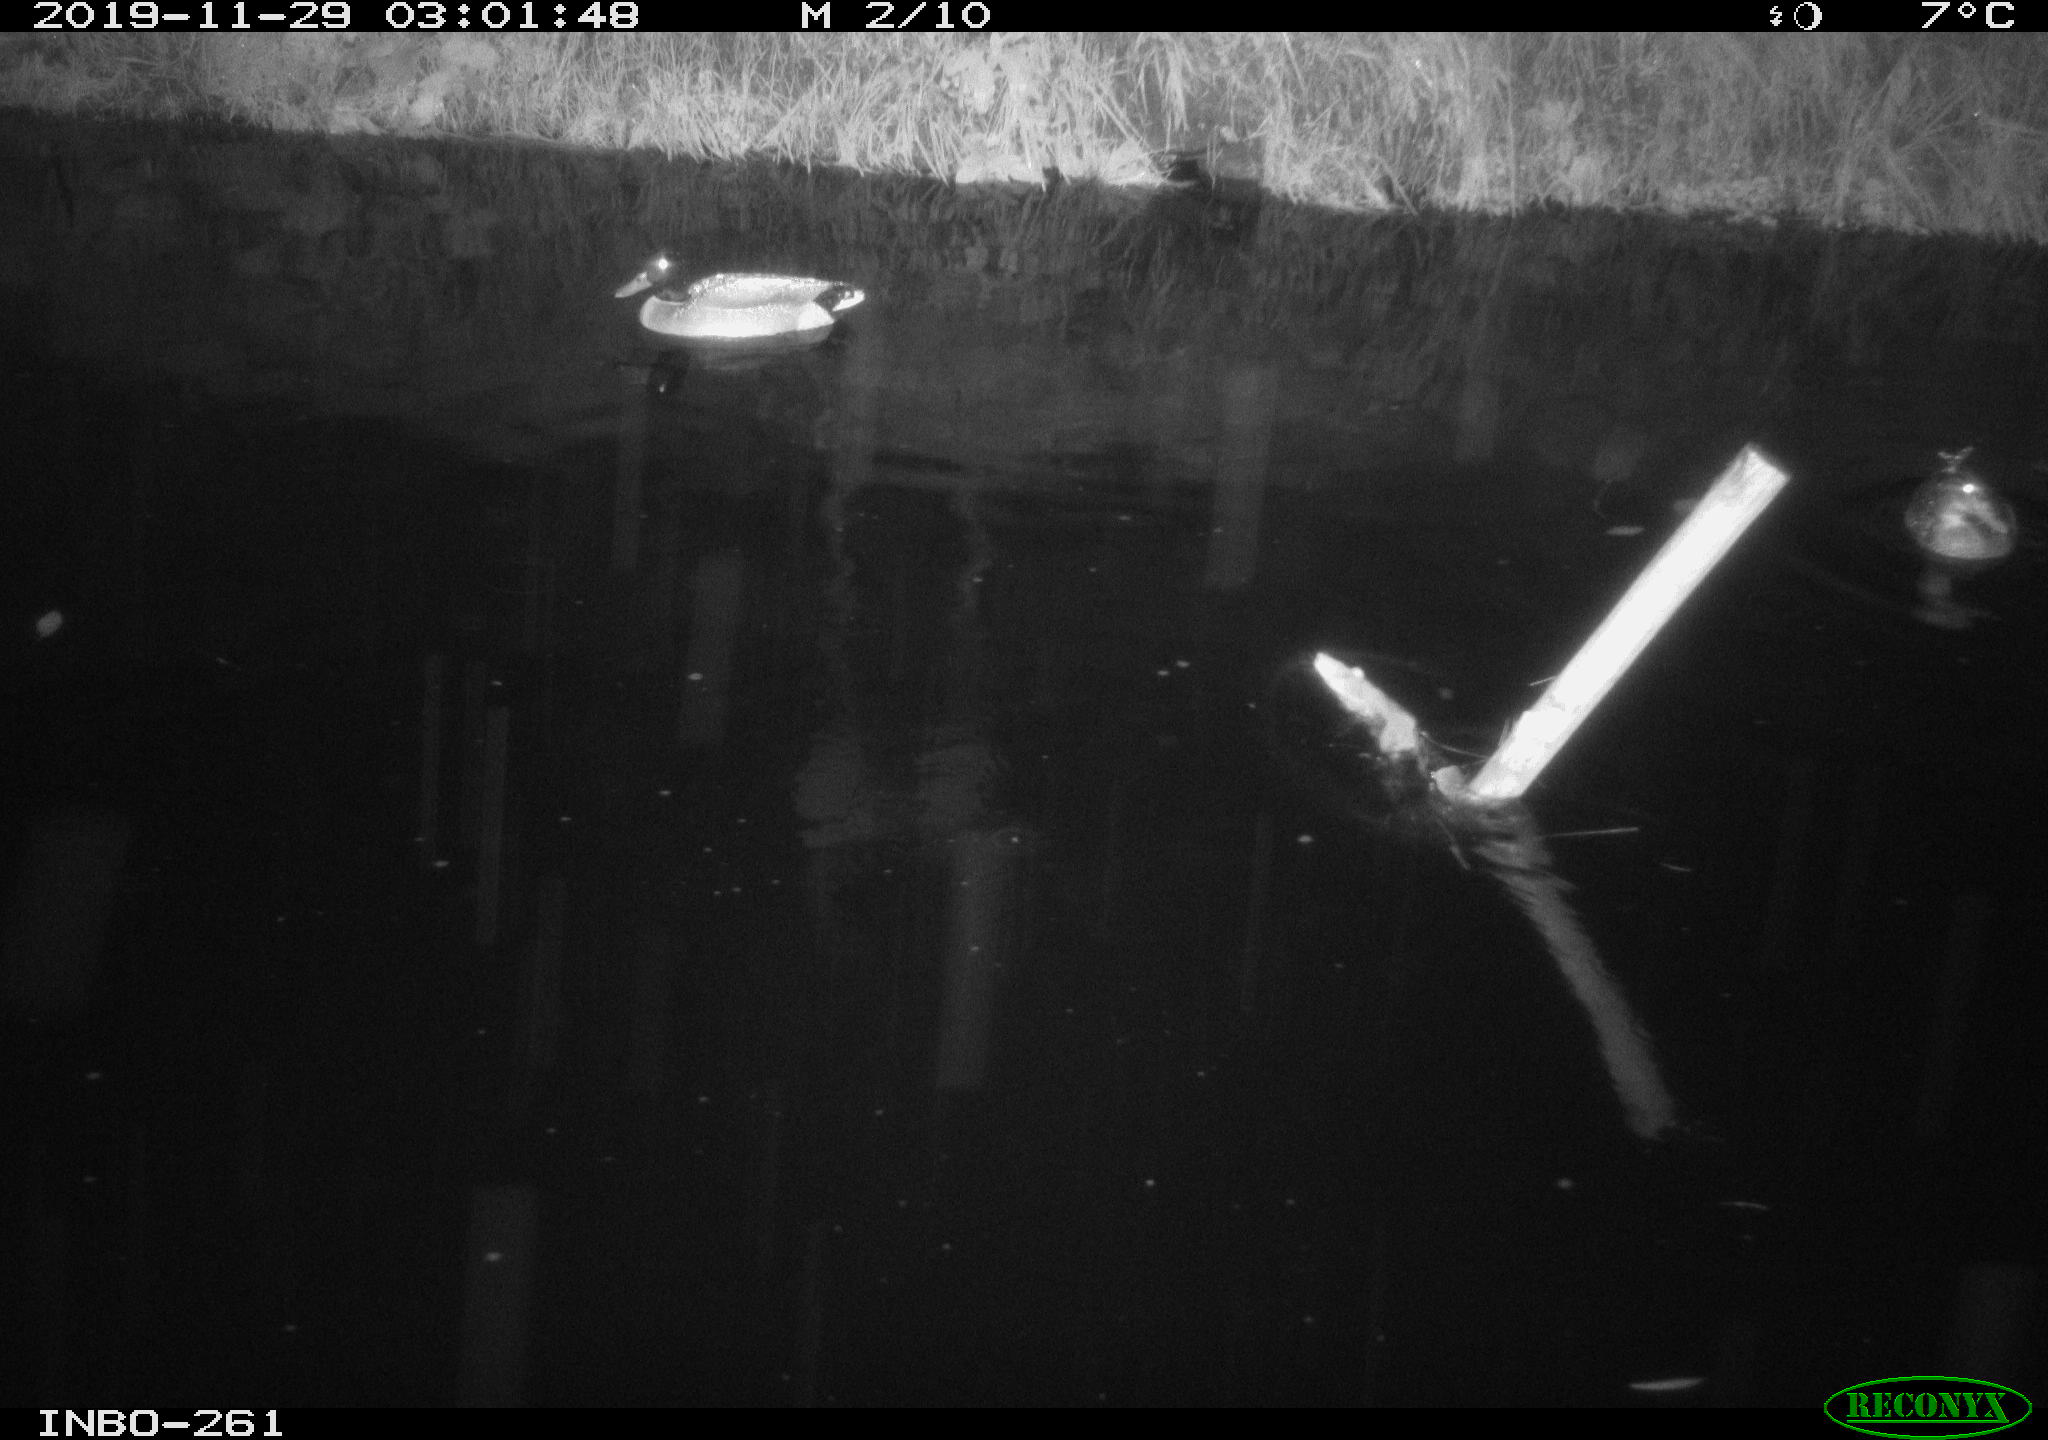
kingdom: Animalia
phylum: Chordata
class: Mammalia
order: Rodentia
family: Muridae
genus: Rattus
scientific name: Rattus norvegicus
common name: Brown rat
